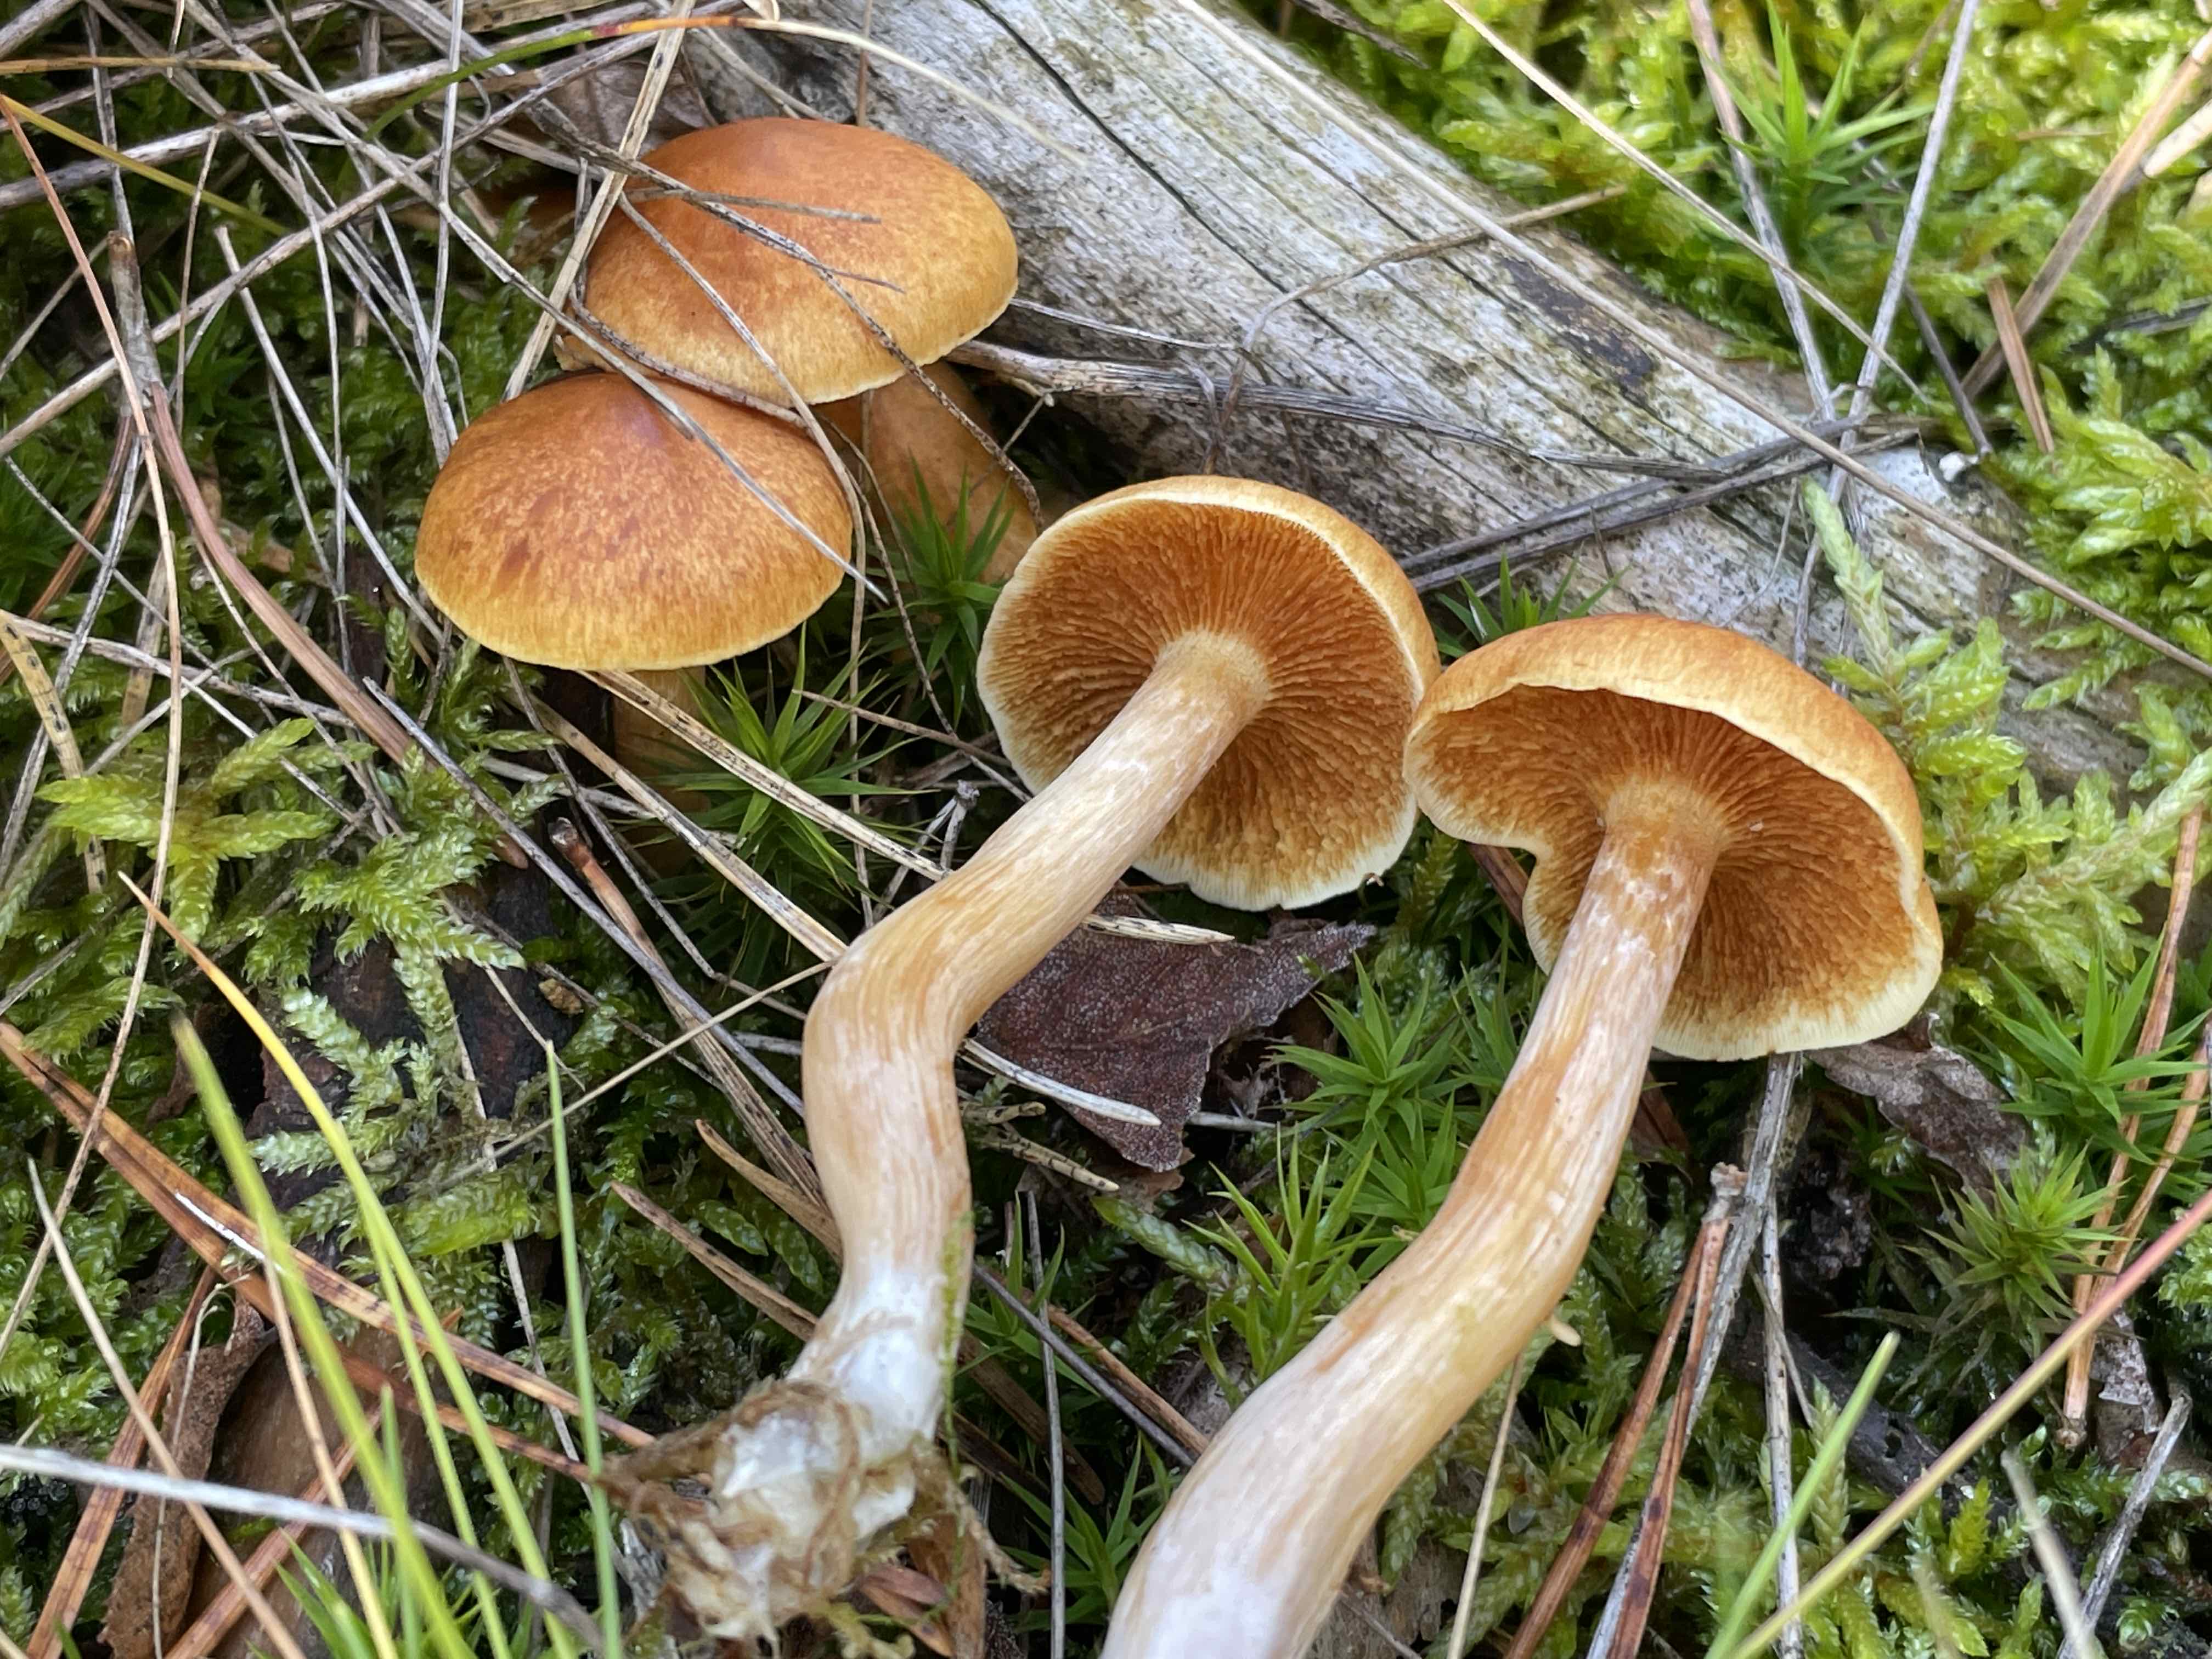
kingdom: Fungi
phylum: Basidiomycota
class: Agaricomycetes
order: Agaricales
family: Hymenogastraceae
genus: Gymnopilus
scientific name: Gymnopilus penetrans
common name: plettet flammehat
